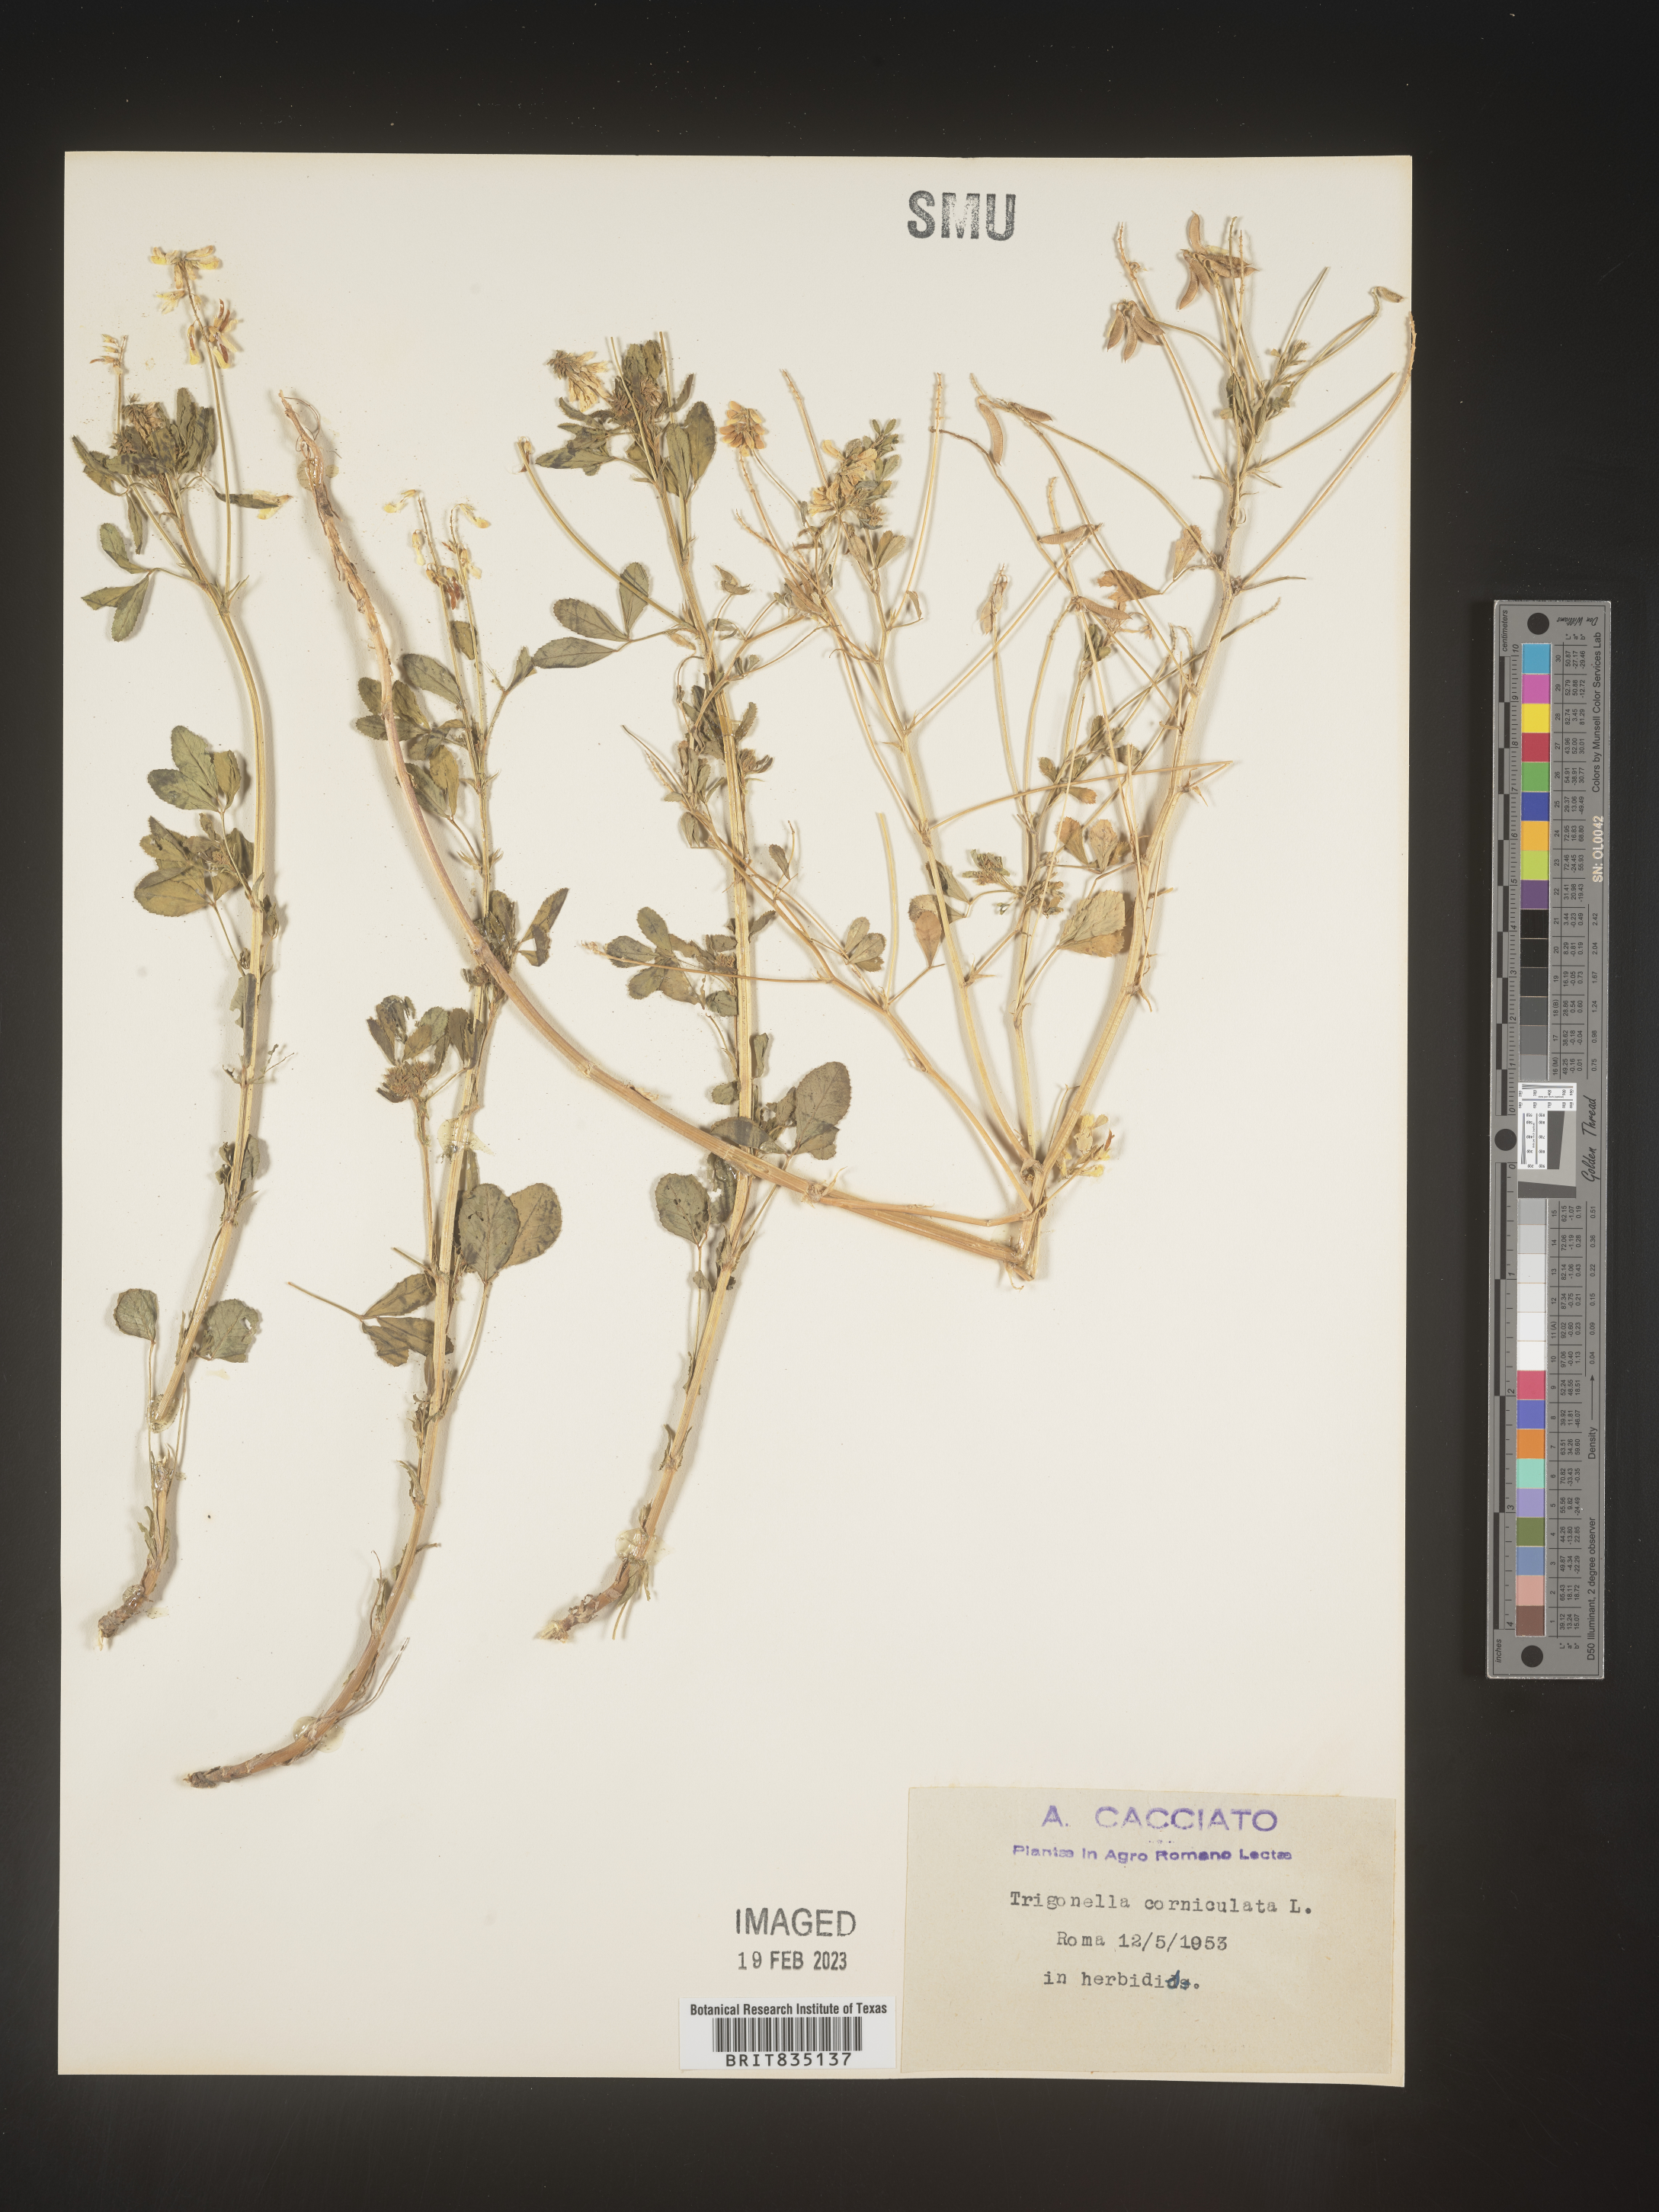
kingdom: Plantae
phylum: Tracheophyta
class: Magnoliopsida
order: Fabales
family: Fabaceae
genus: Trigonella
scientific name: Trigonella
